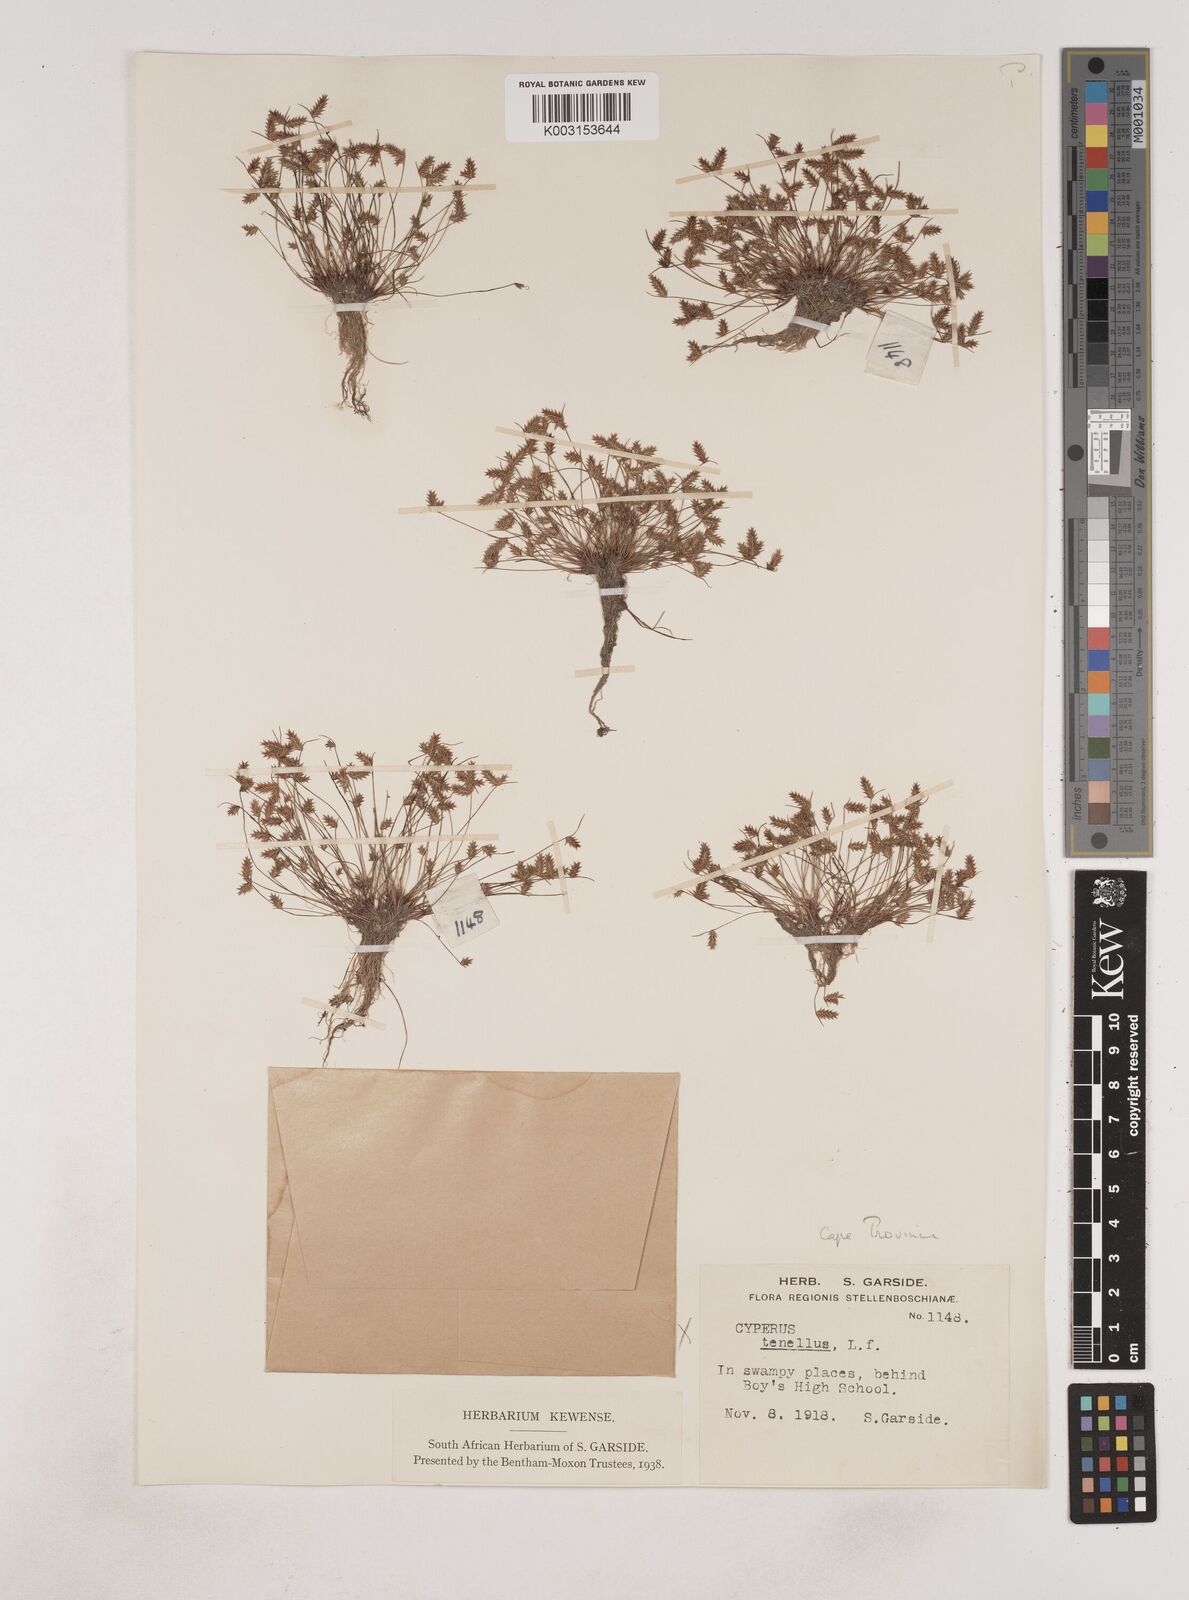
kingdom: Plantae
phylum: Tracheophyta
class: Liliopsida
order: Poales
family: Cyperaceae
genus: Isolepis
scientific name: Isolepis levynsiana
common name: Sedge
